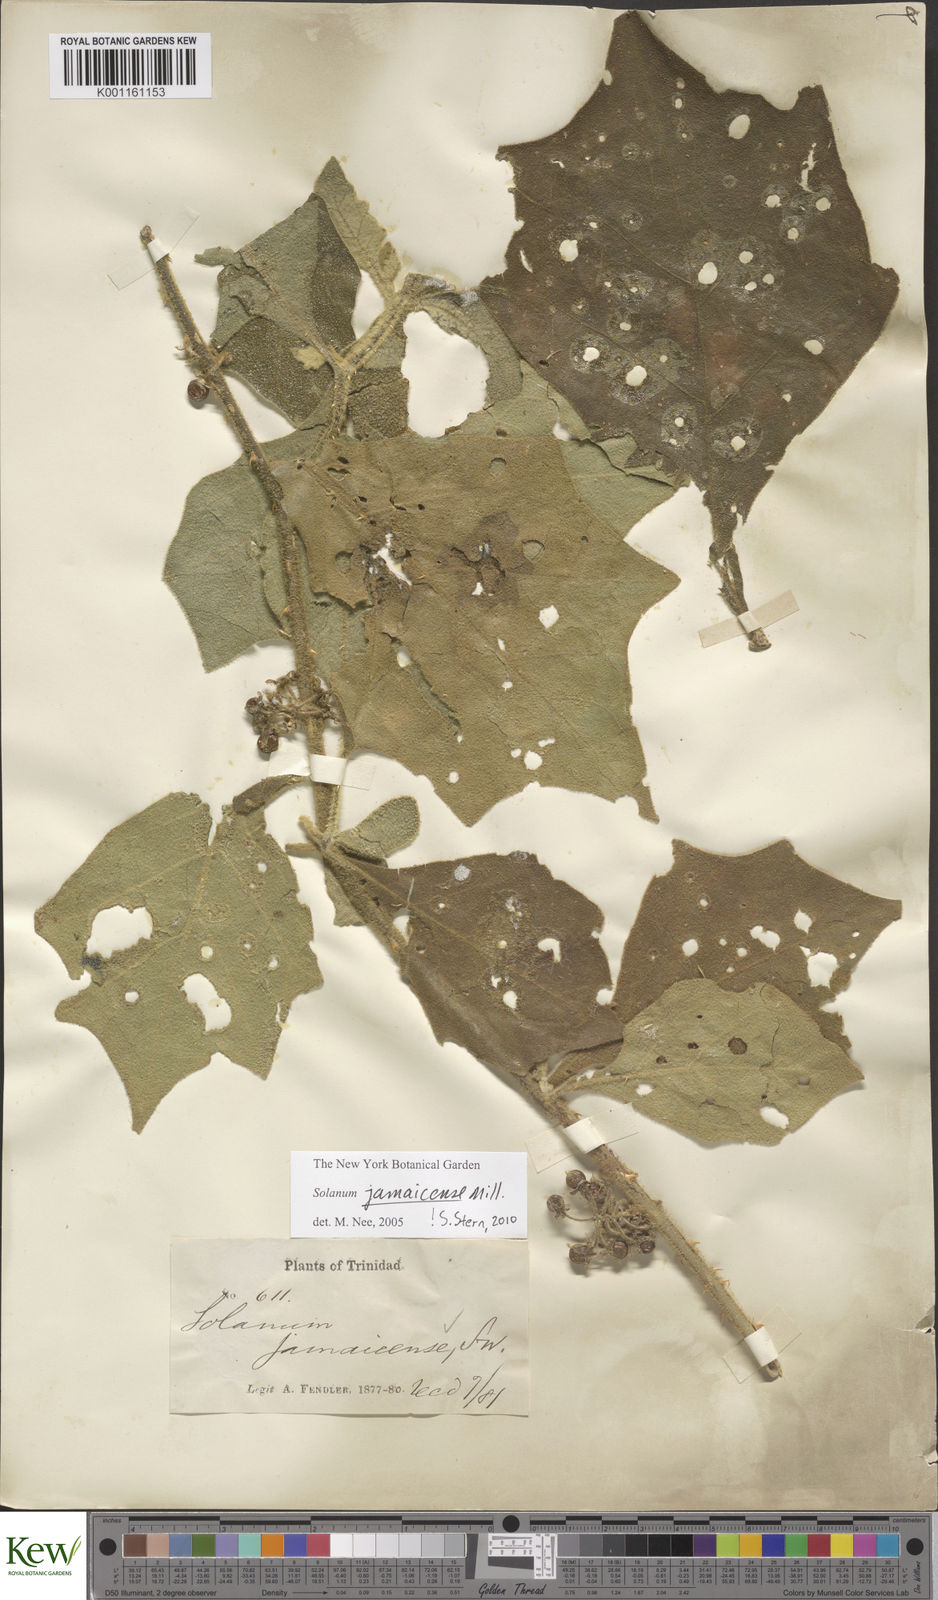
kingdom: Plantae
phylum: Tracheophyta
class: Magnoliopsida
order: Solanales
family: Solanaceae
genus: Solanum
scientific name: Solanum jamaicense
